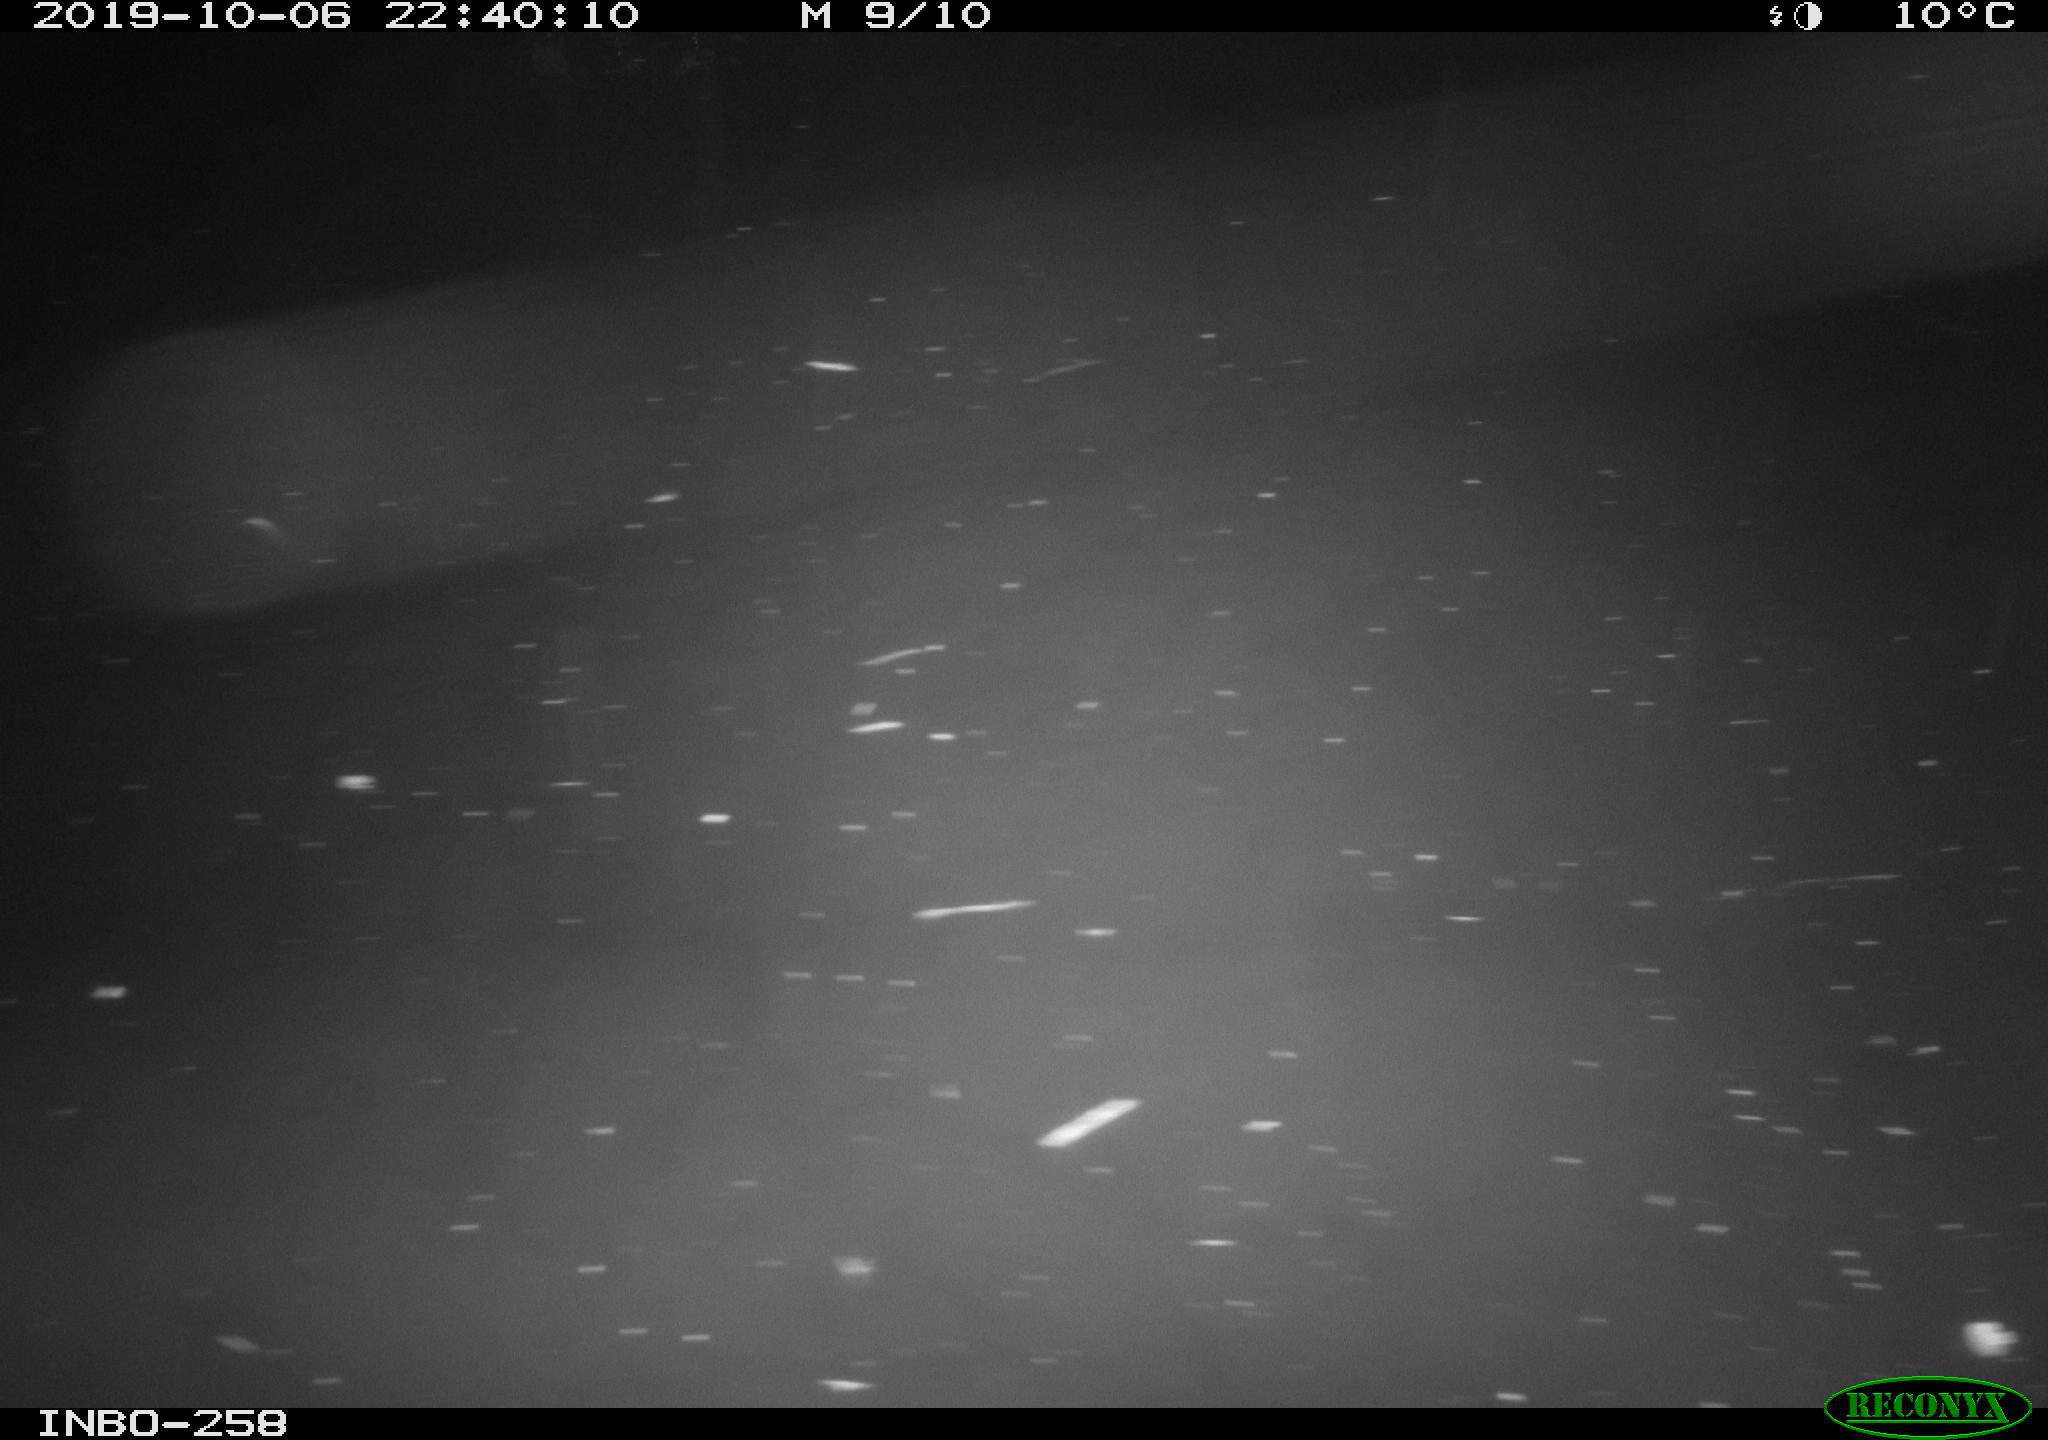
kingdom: Animalia
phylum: Chordata
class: Aves
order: Anseriformes
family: Anatidae
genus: Anas
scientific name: Anas platyrhynchos
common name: Mallard
